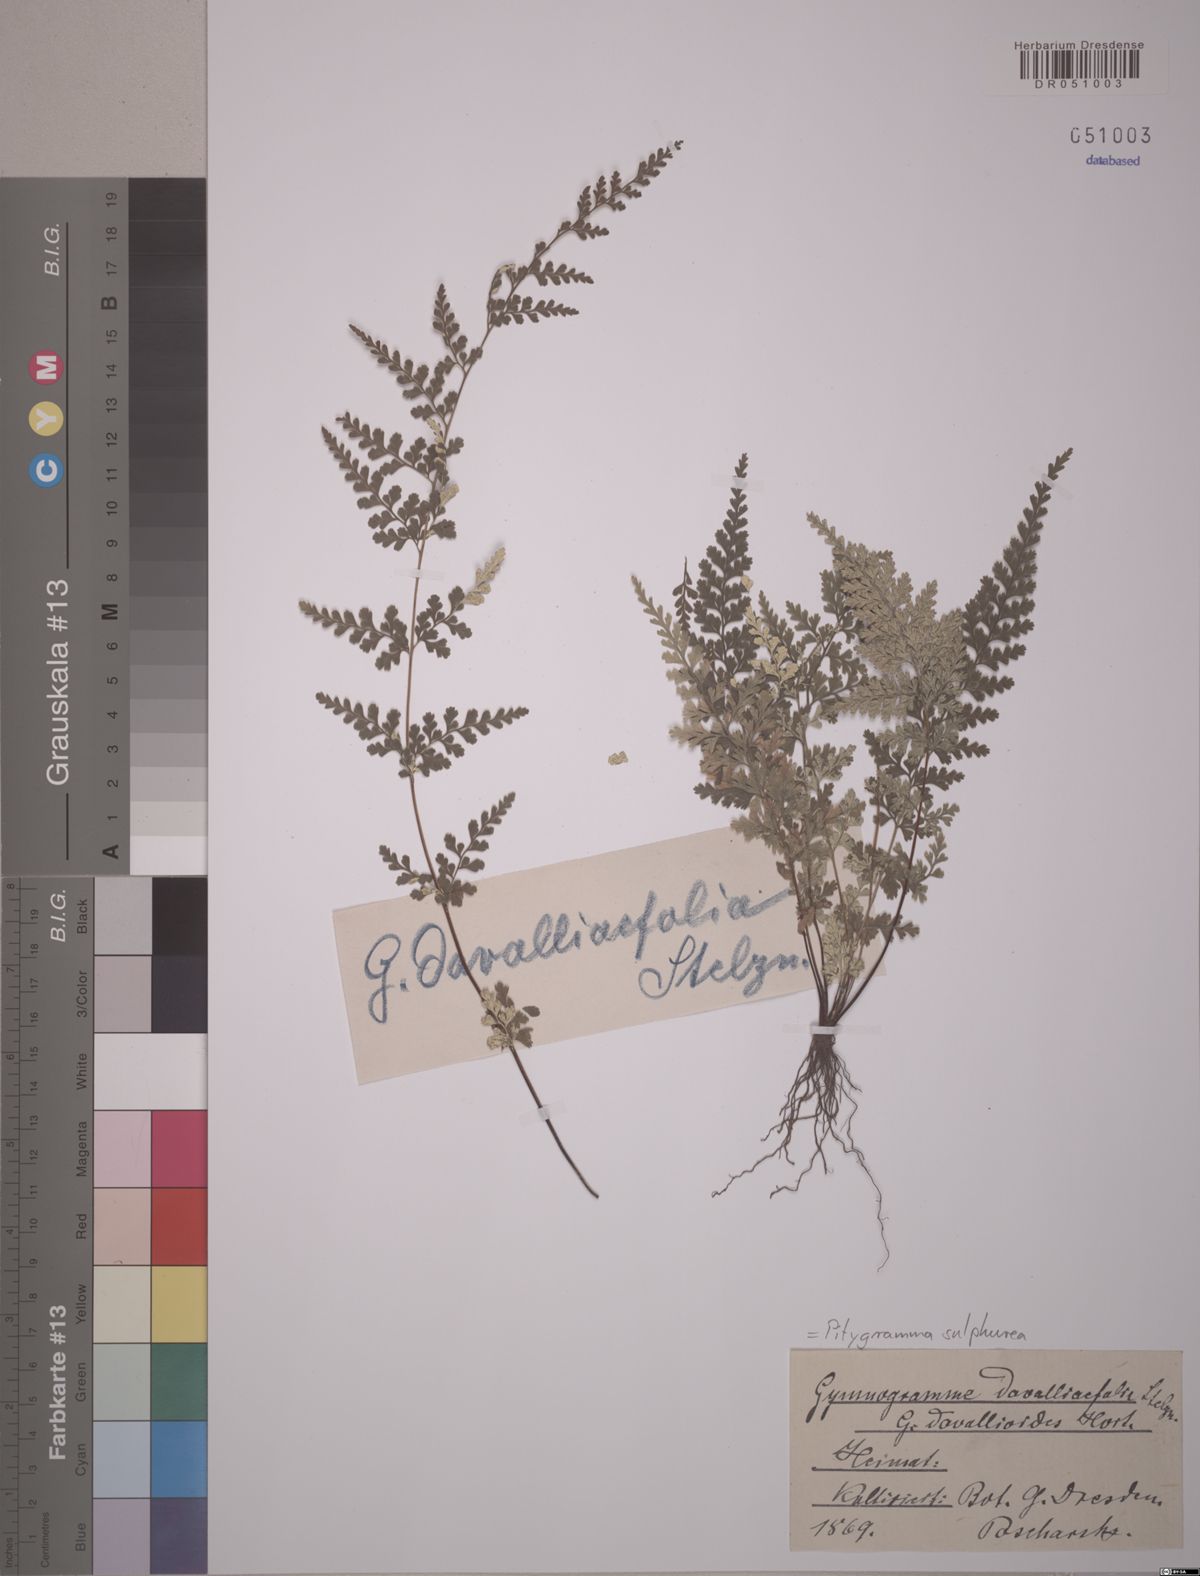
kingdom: Plantae
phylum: Tracheophyta
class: Polypodiopsida
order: Polypodiales
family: Pteridaceae
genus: Pityrogramma
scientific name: Pityrogramma sulphurea
